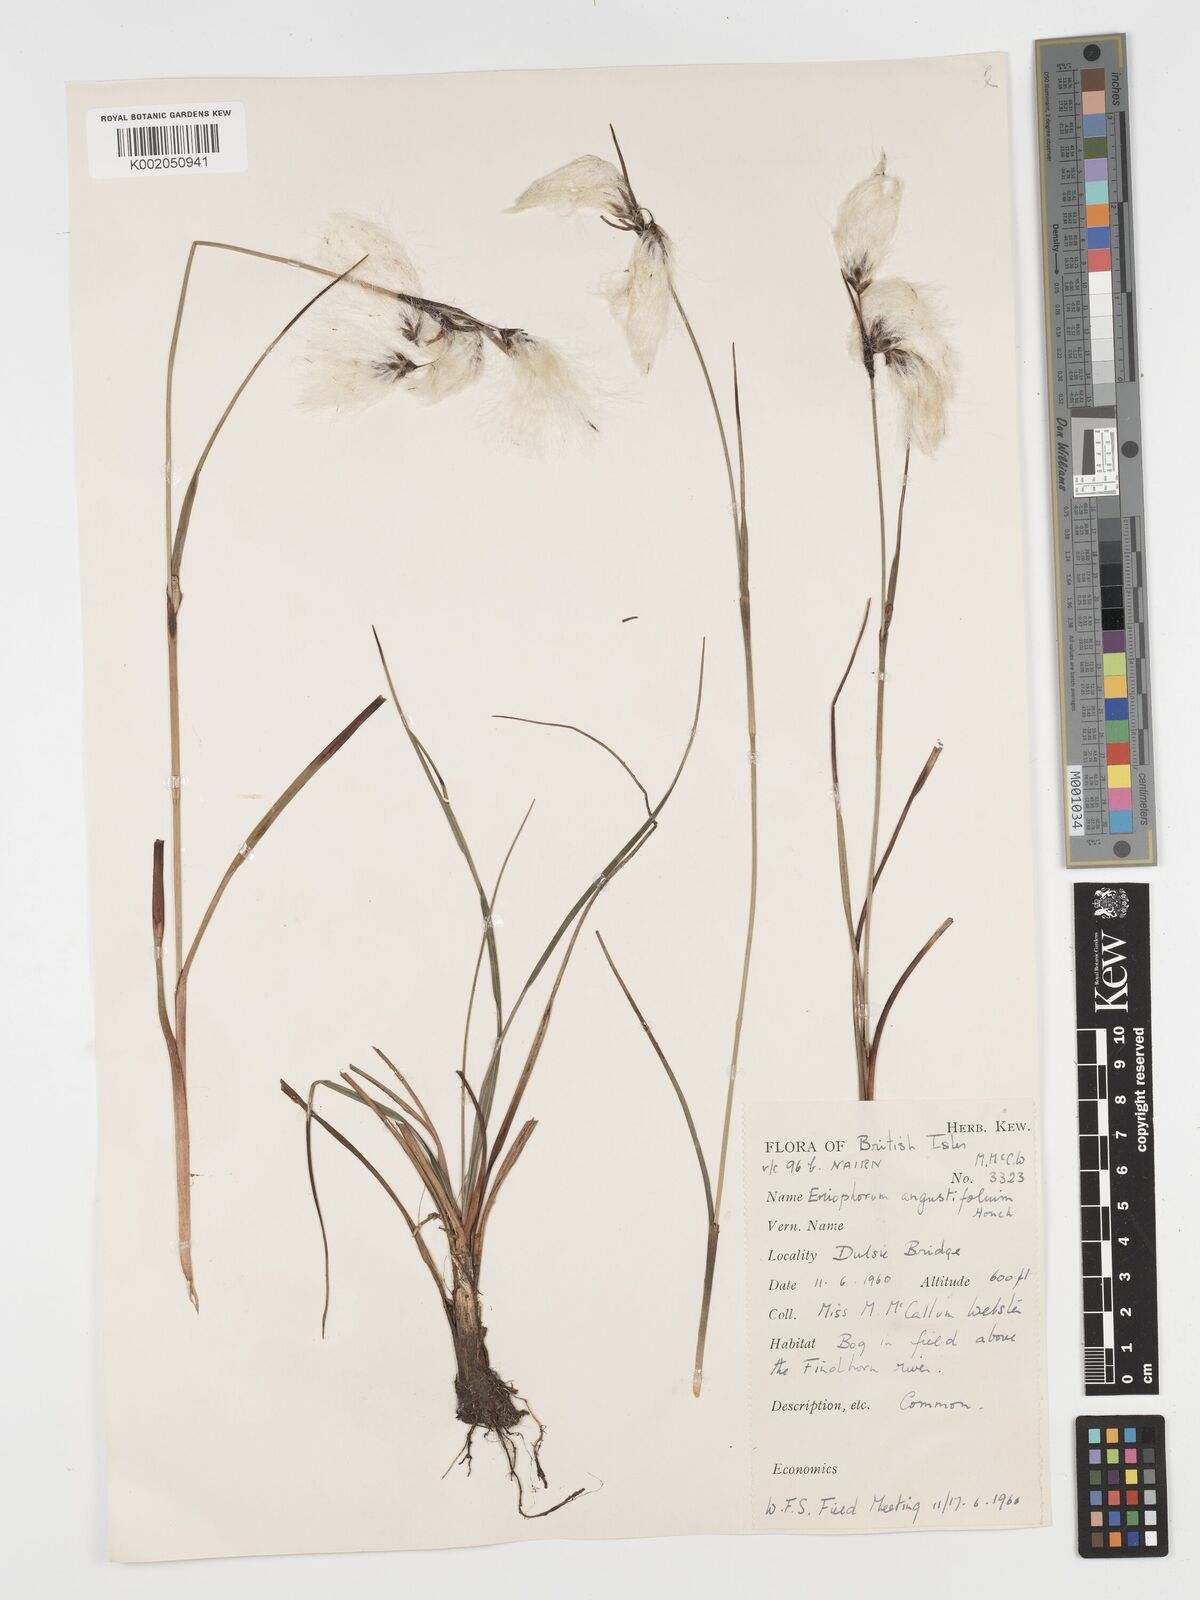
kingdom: Plantae
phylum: Tracheophyta
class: Liliopsida
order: Poales
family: Cyperaceae
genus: Eriophorum
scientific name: Eriophorum angustifolium
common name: Common cottongrass
